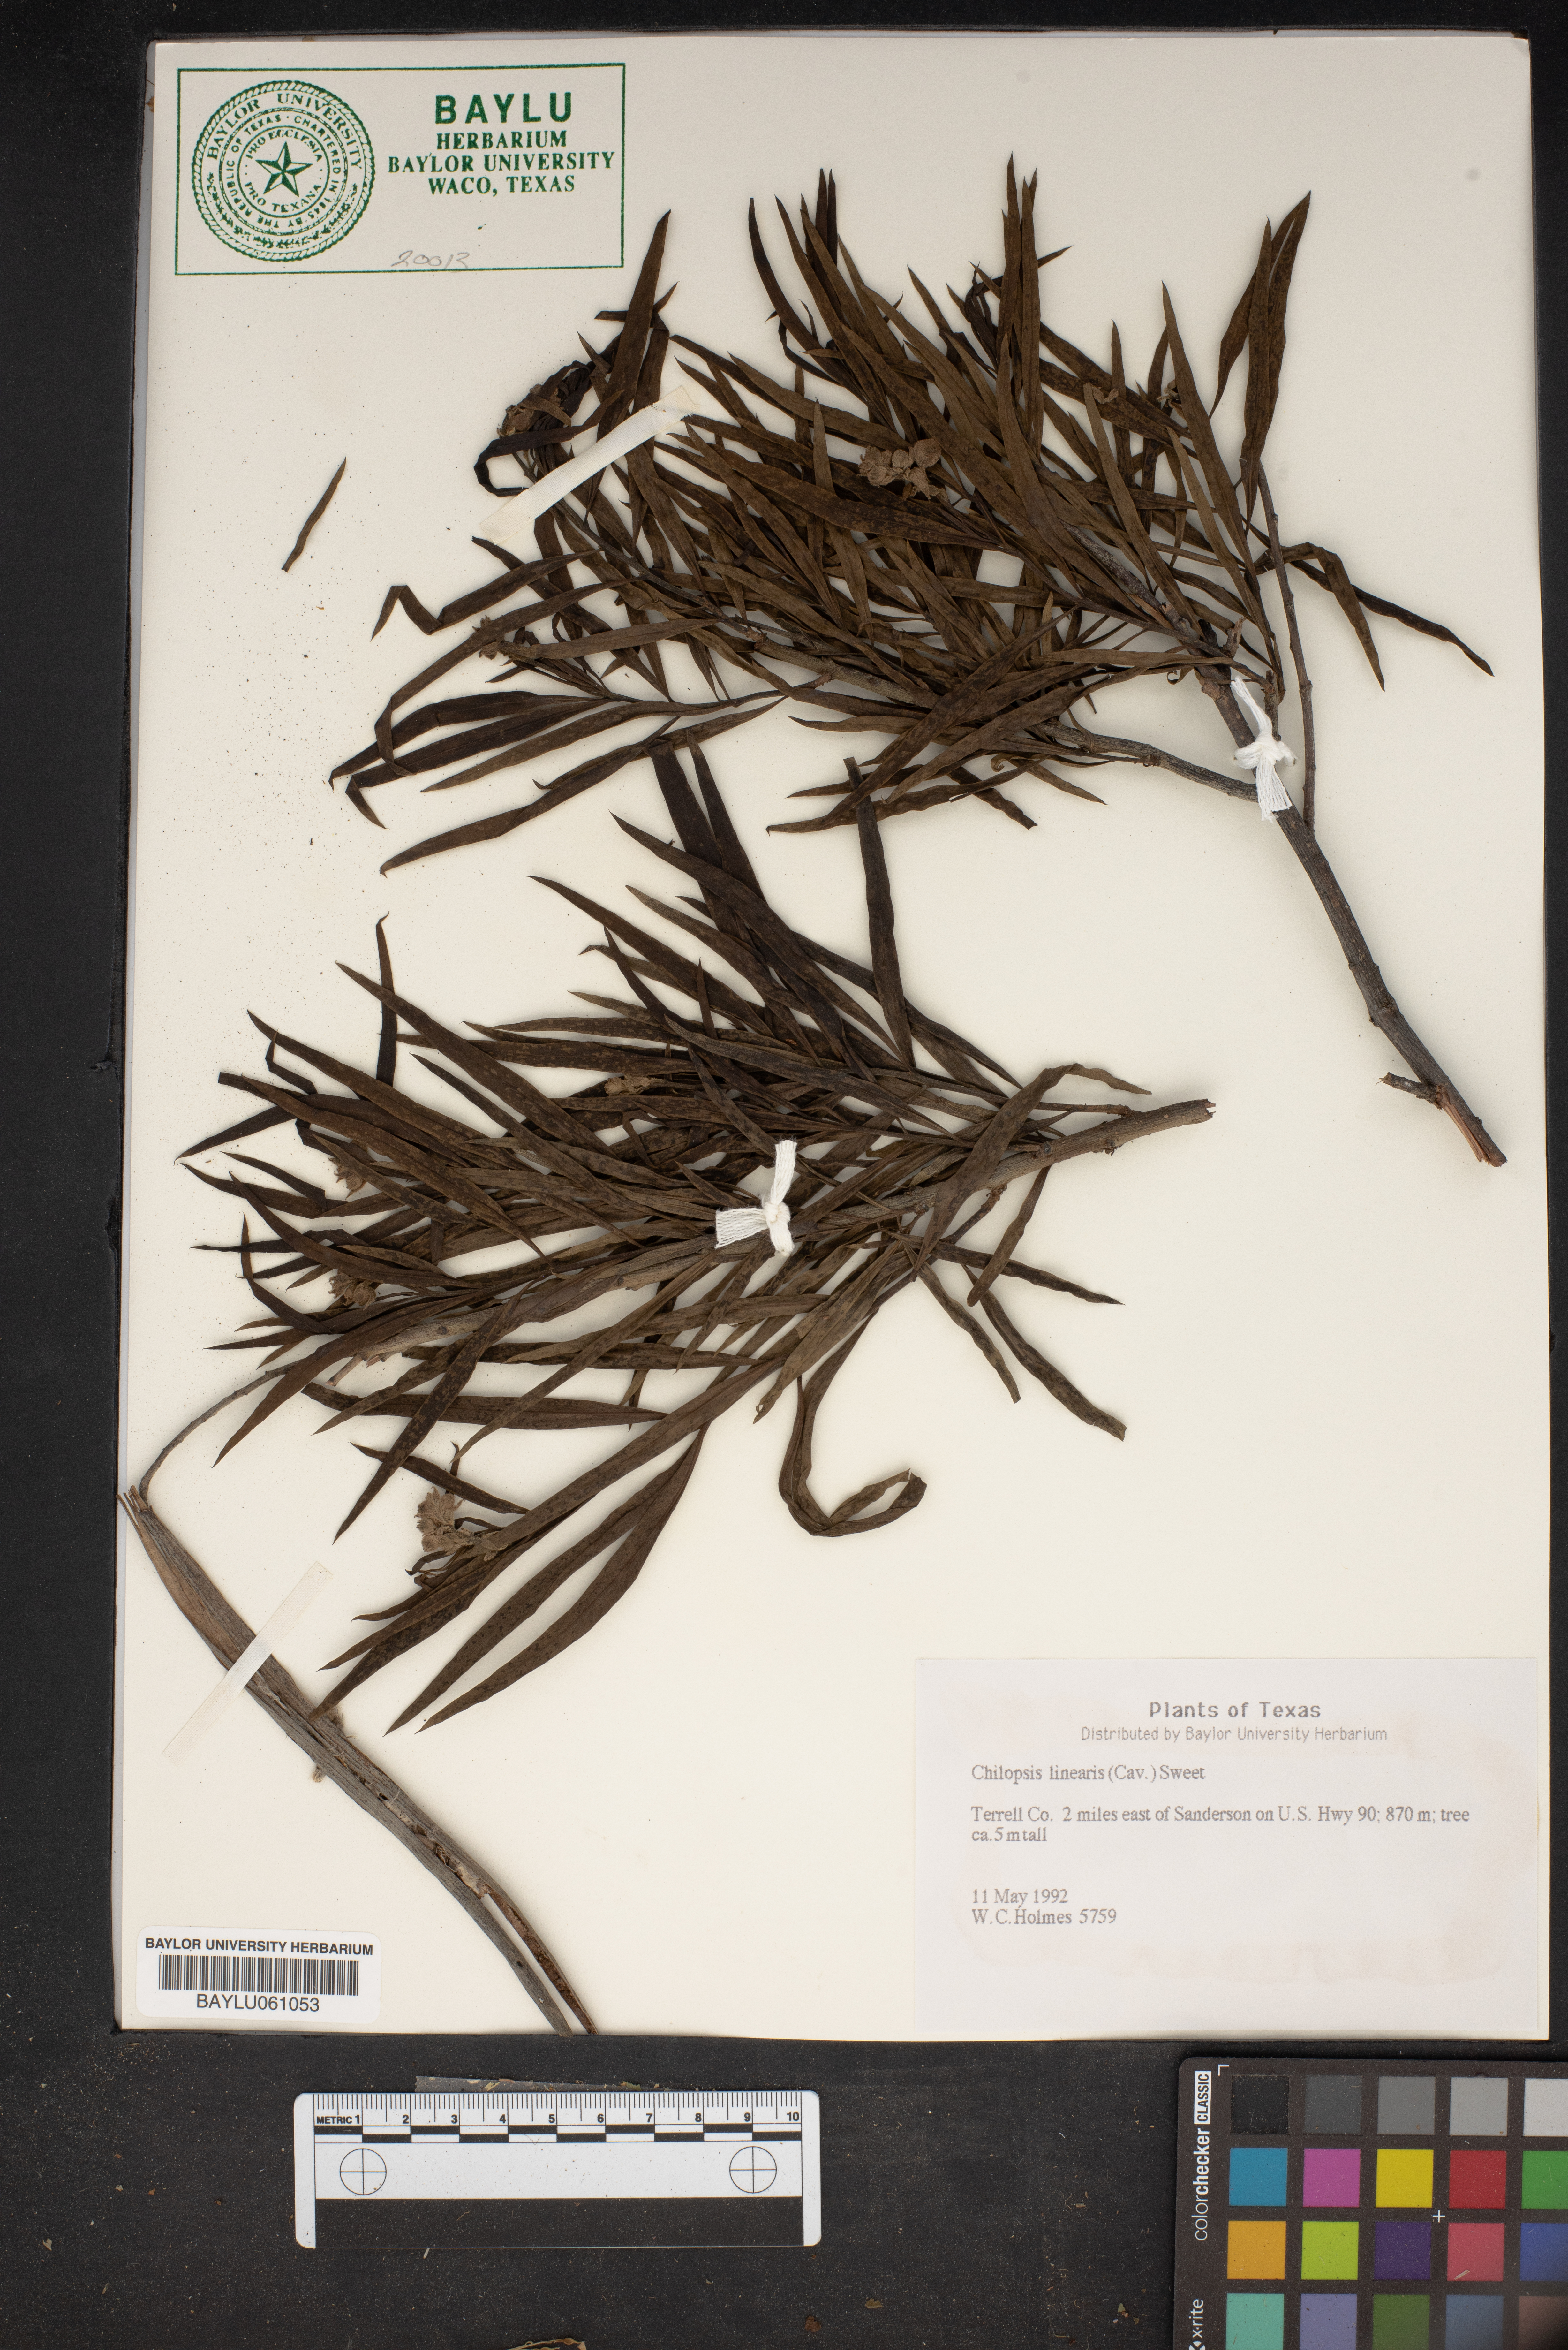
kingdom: Plantae
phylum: Tracheophyta
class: Magnoliopsida
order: Lamiales
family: Bignoniaceae
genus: Chilopsis
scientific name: Chilopsis linearis
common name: Desert-willow
